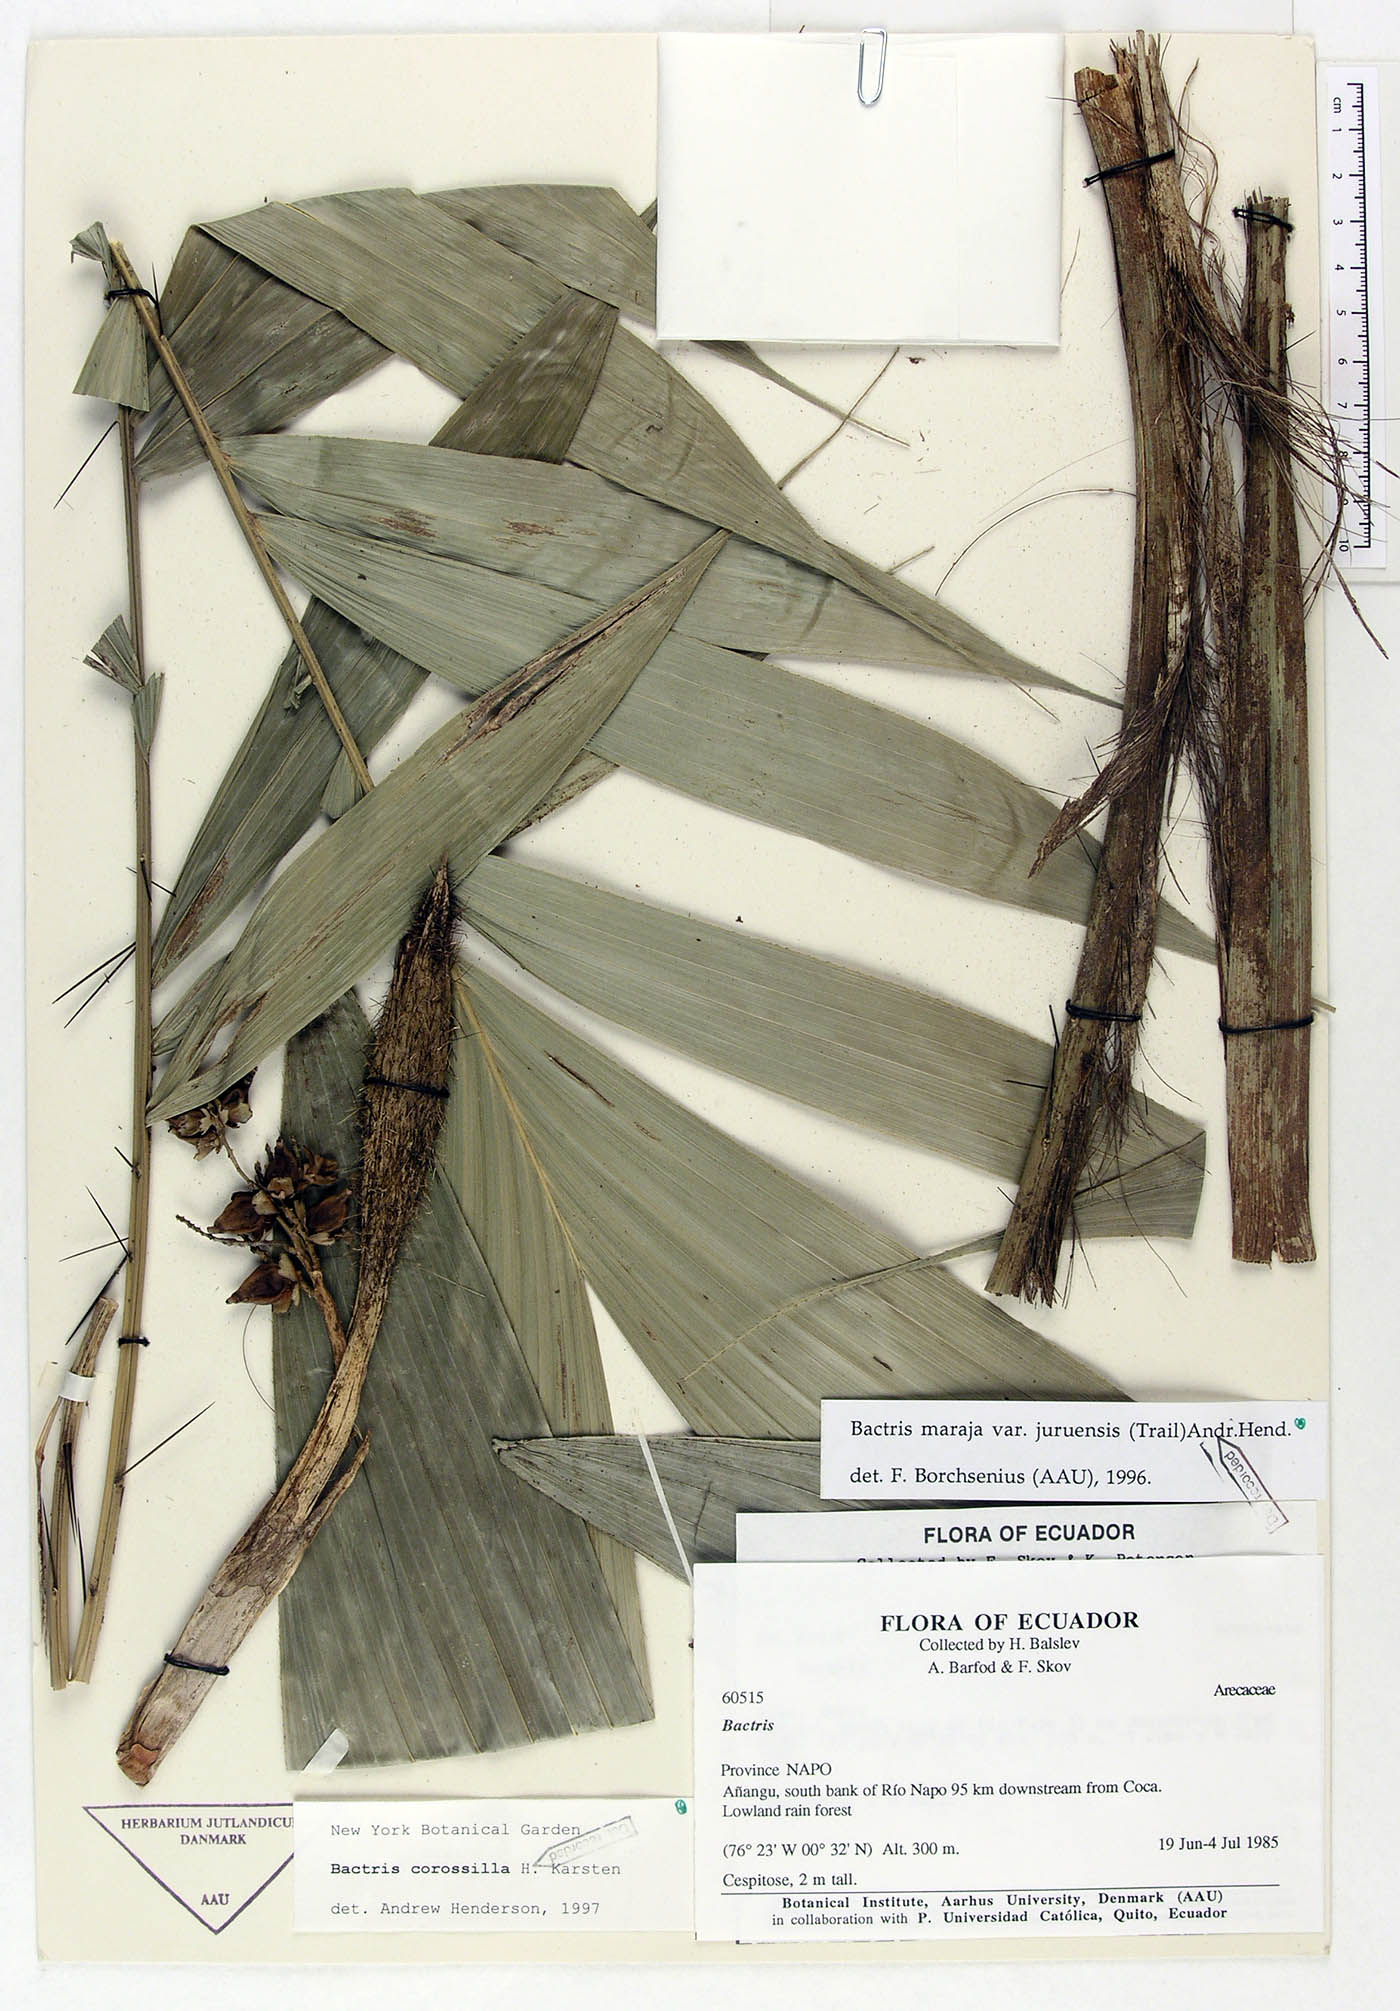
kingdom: Plantae
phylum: Tracheophyta
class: Liliopsida
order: Arecales
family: Arecaceae
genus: Bactris
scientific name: Bactris maraja
